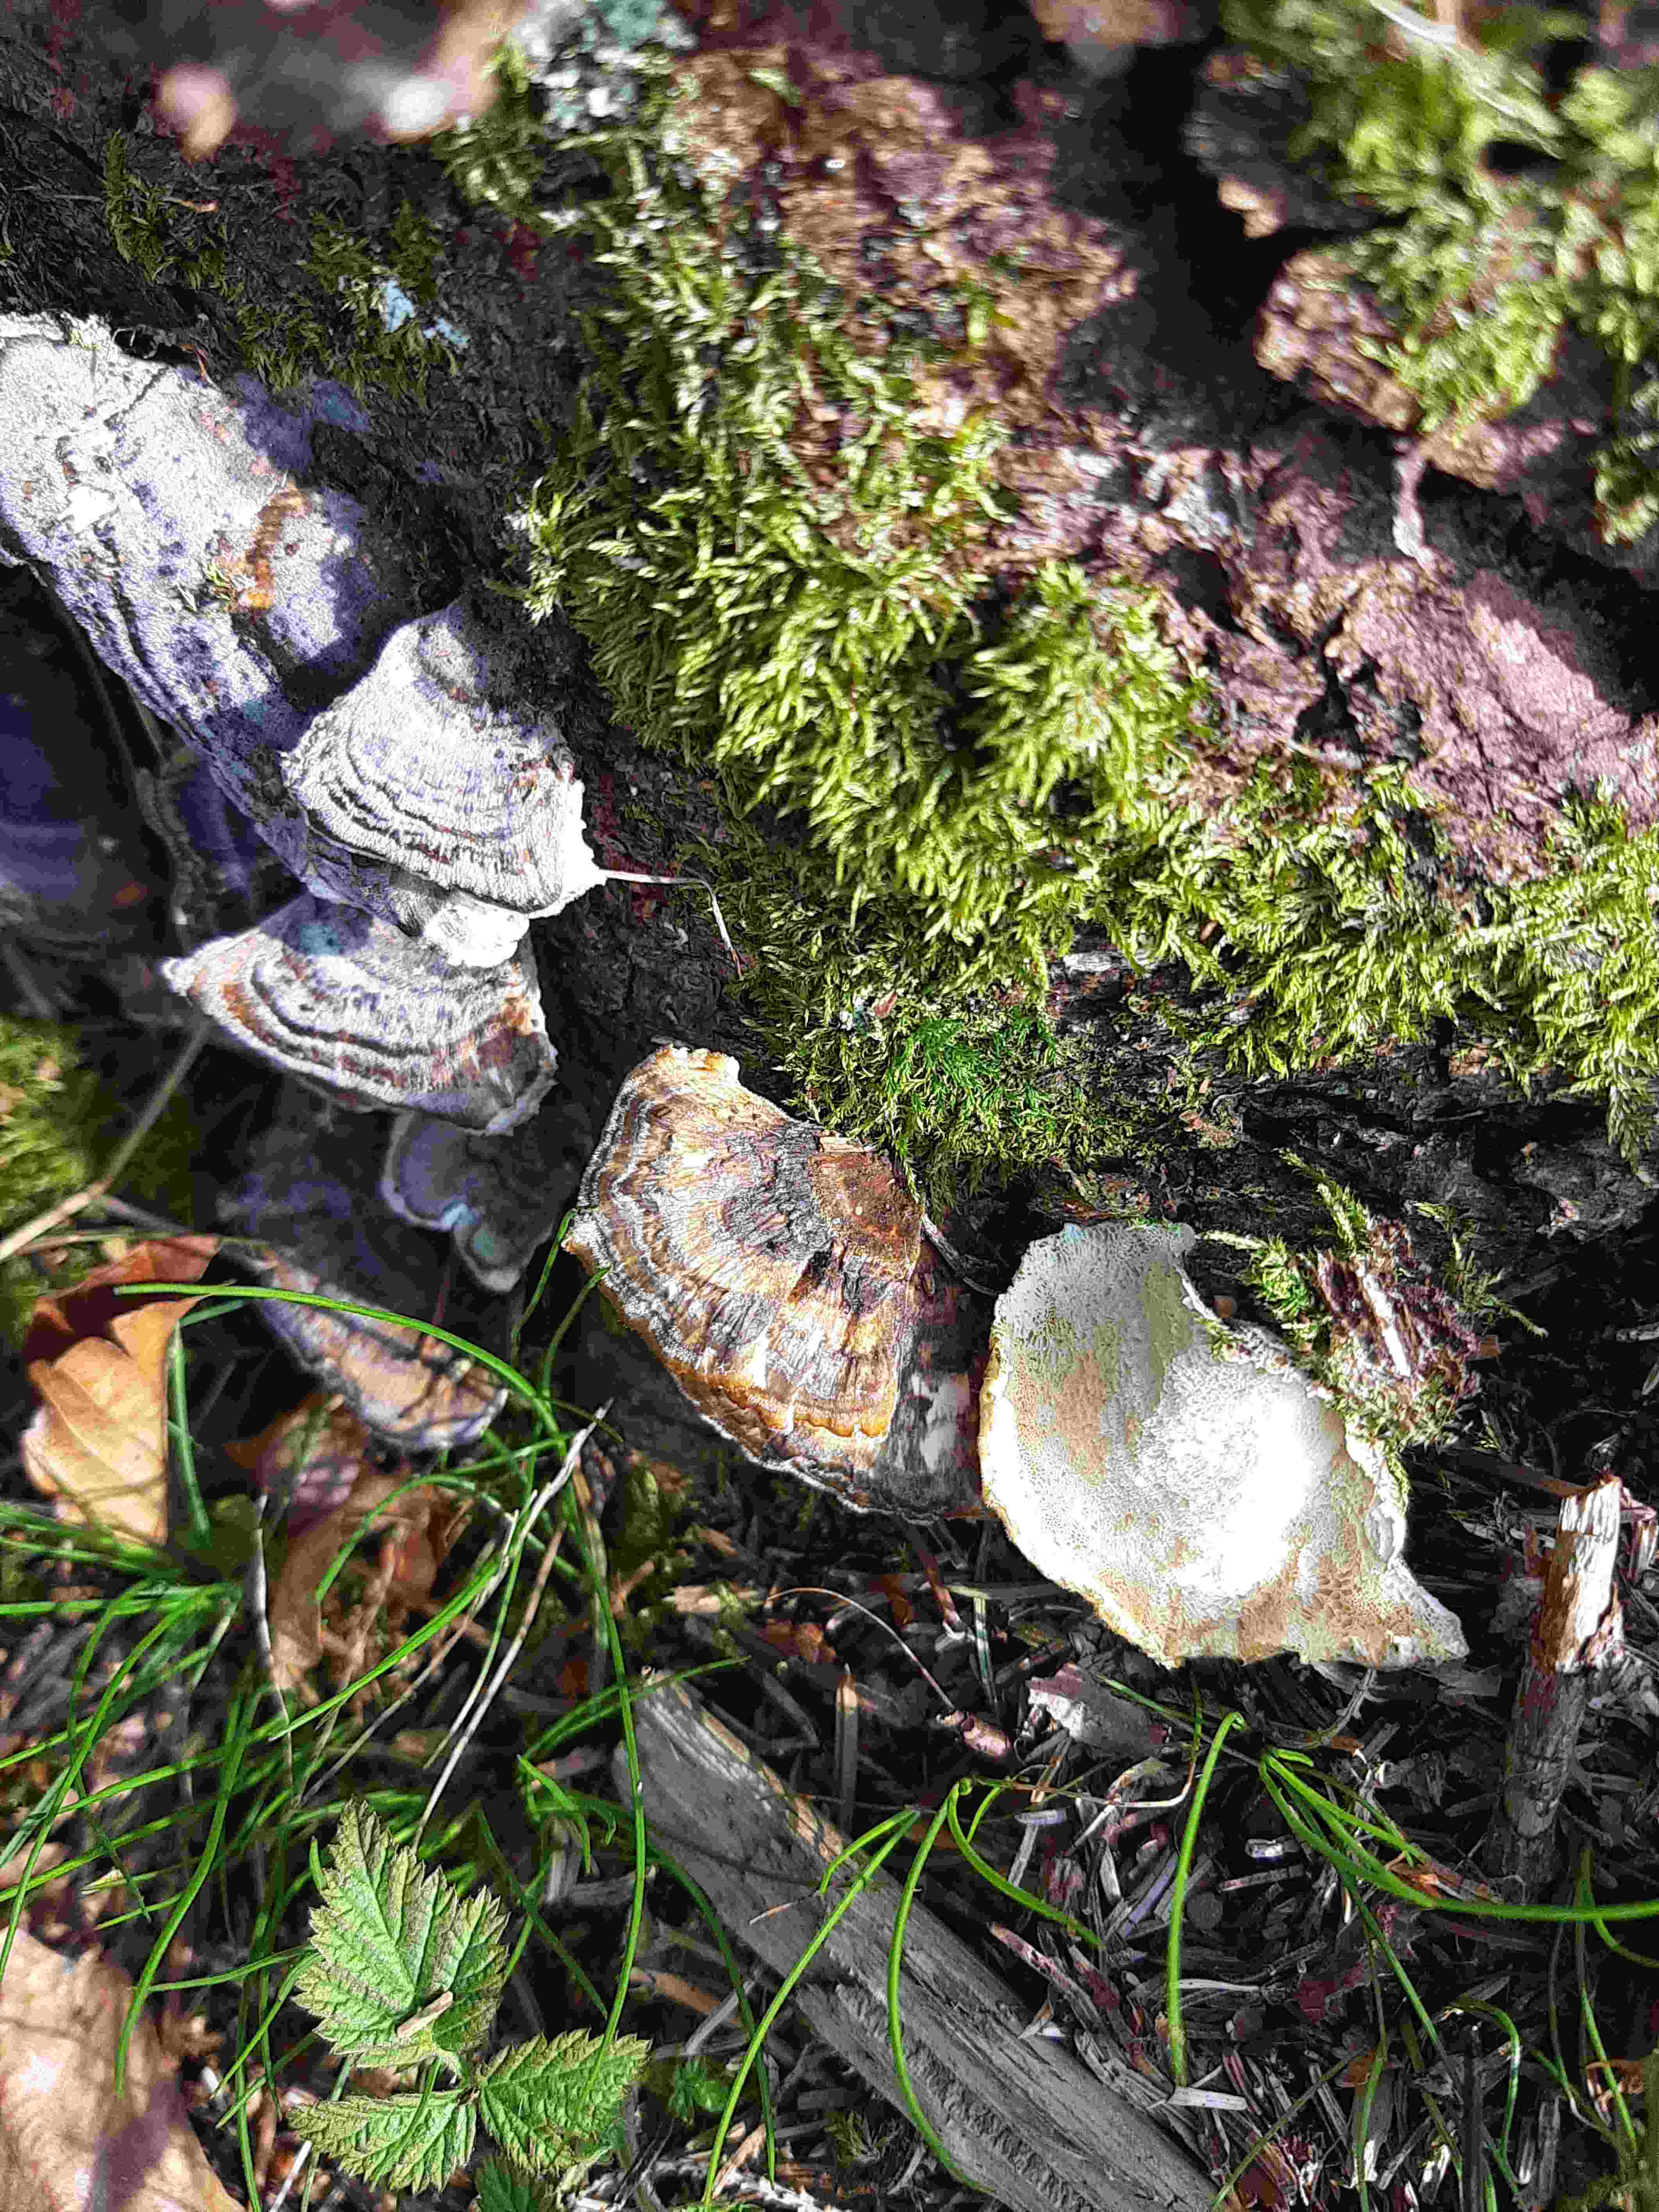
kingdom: Fungi
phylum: Basidiomycota
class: Agaricomycetes
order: Polyporales
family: Polyporaceae
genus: Trametes
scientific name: Trametes versicolor
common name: broget læderporesvamp
